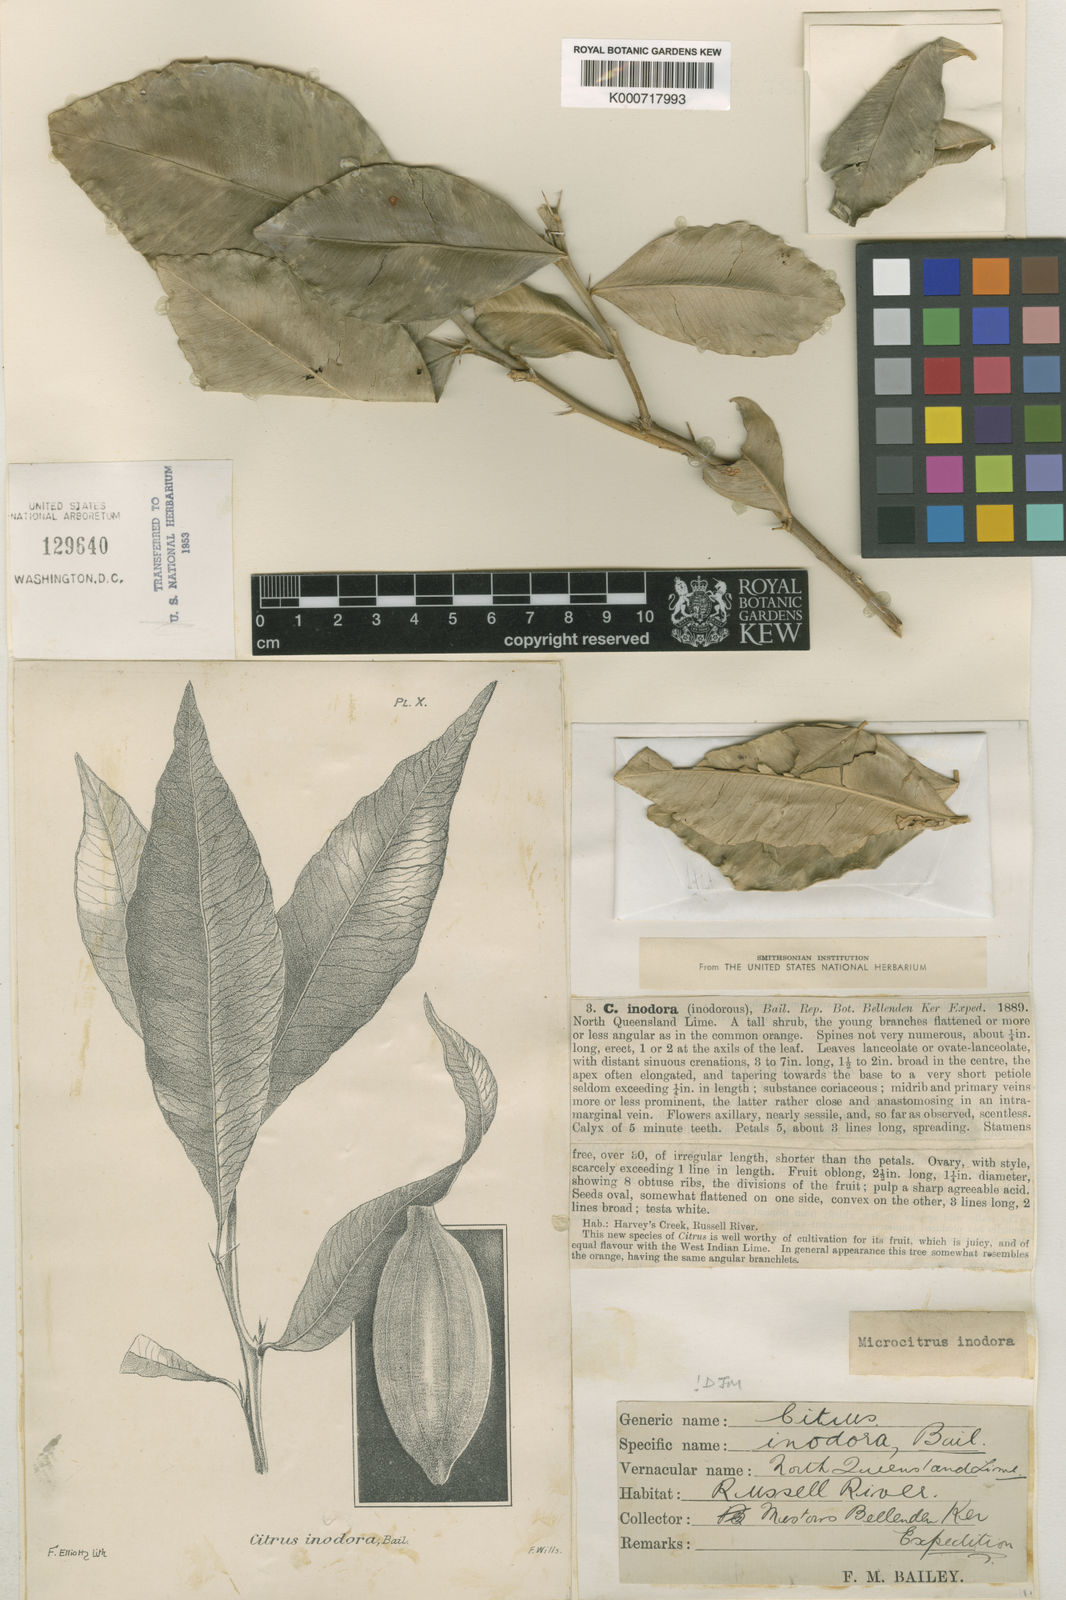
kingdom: Plantae
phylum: Tracheophyta
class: Magnoliopsida
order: Sapindales
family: Rutaceae
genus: Microcitrus
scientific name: Microcitrus inodora
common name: Russell river-lime
